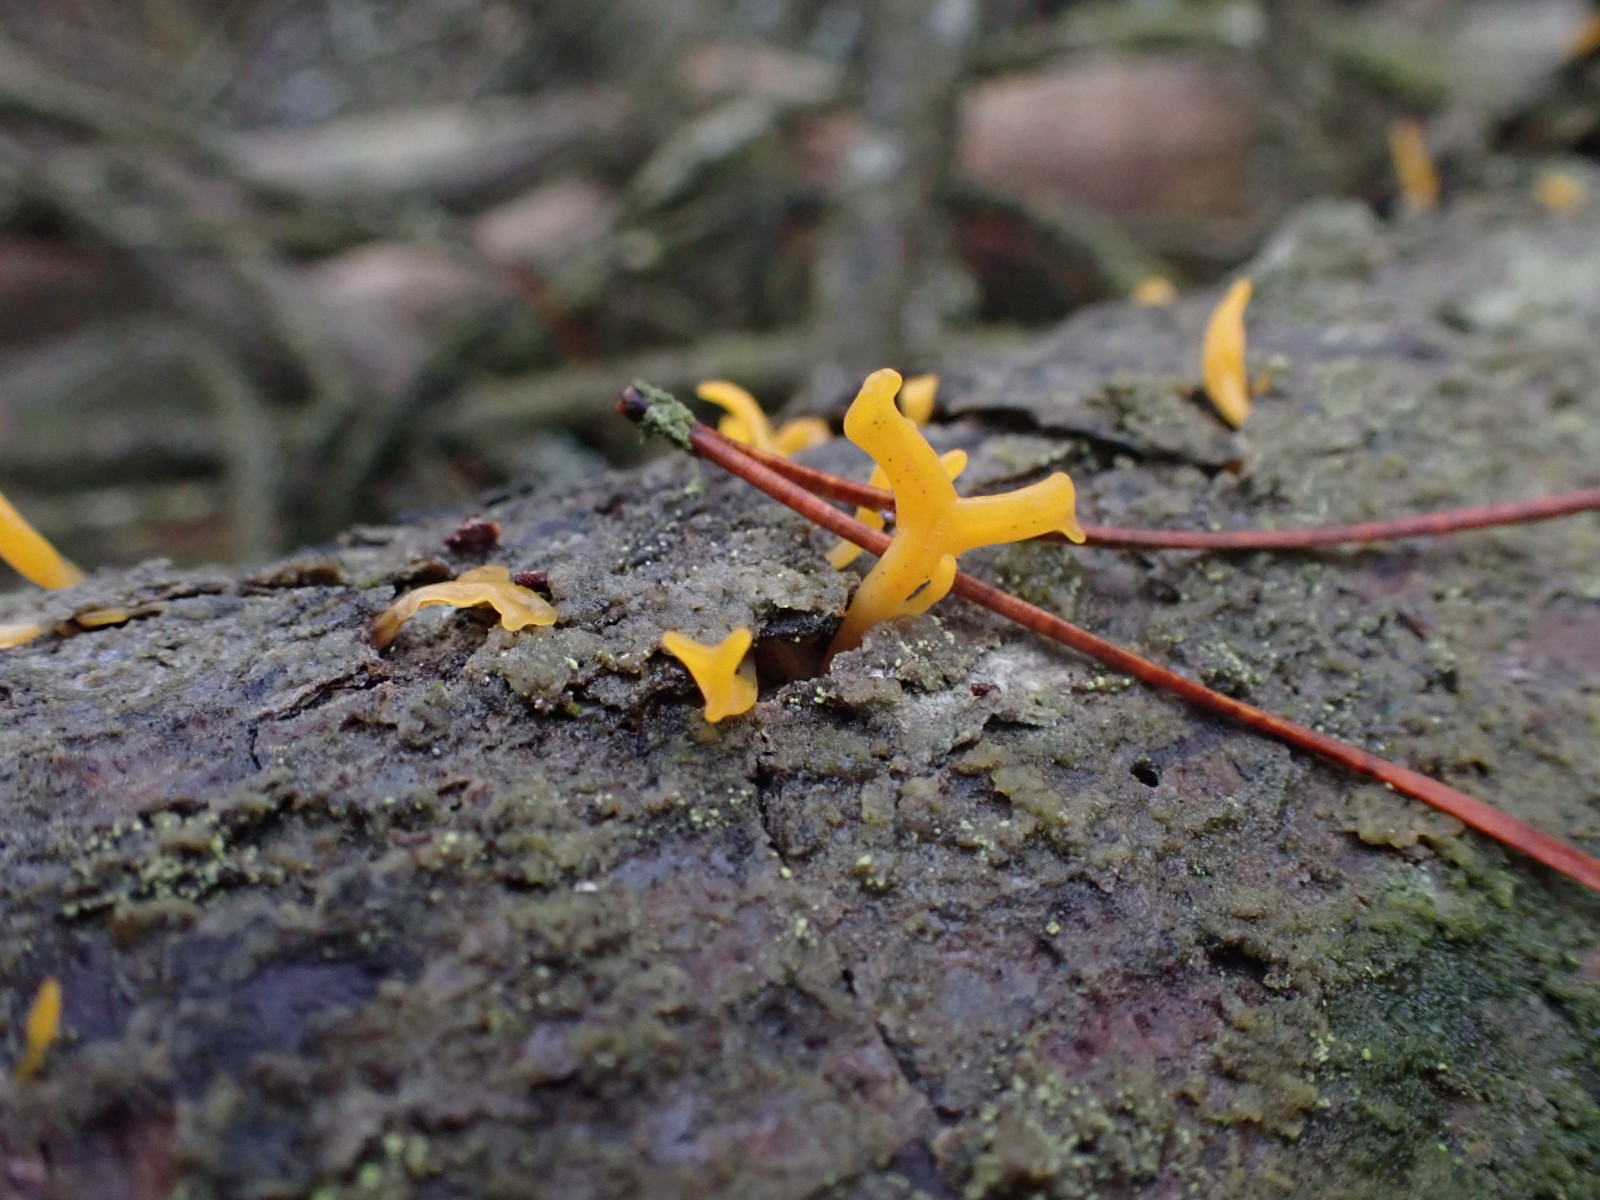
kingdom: Fungi
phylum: Basidiomycota
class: Dacrymycetes
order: Dacrymycetales
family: Dacrymycetaceae
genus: Calocera
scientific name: Calocera furcata
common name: fyrre-guldgaffel
